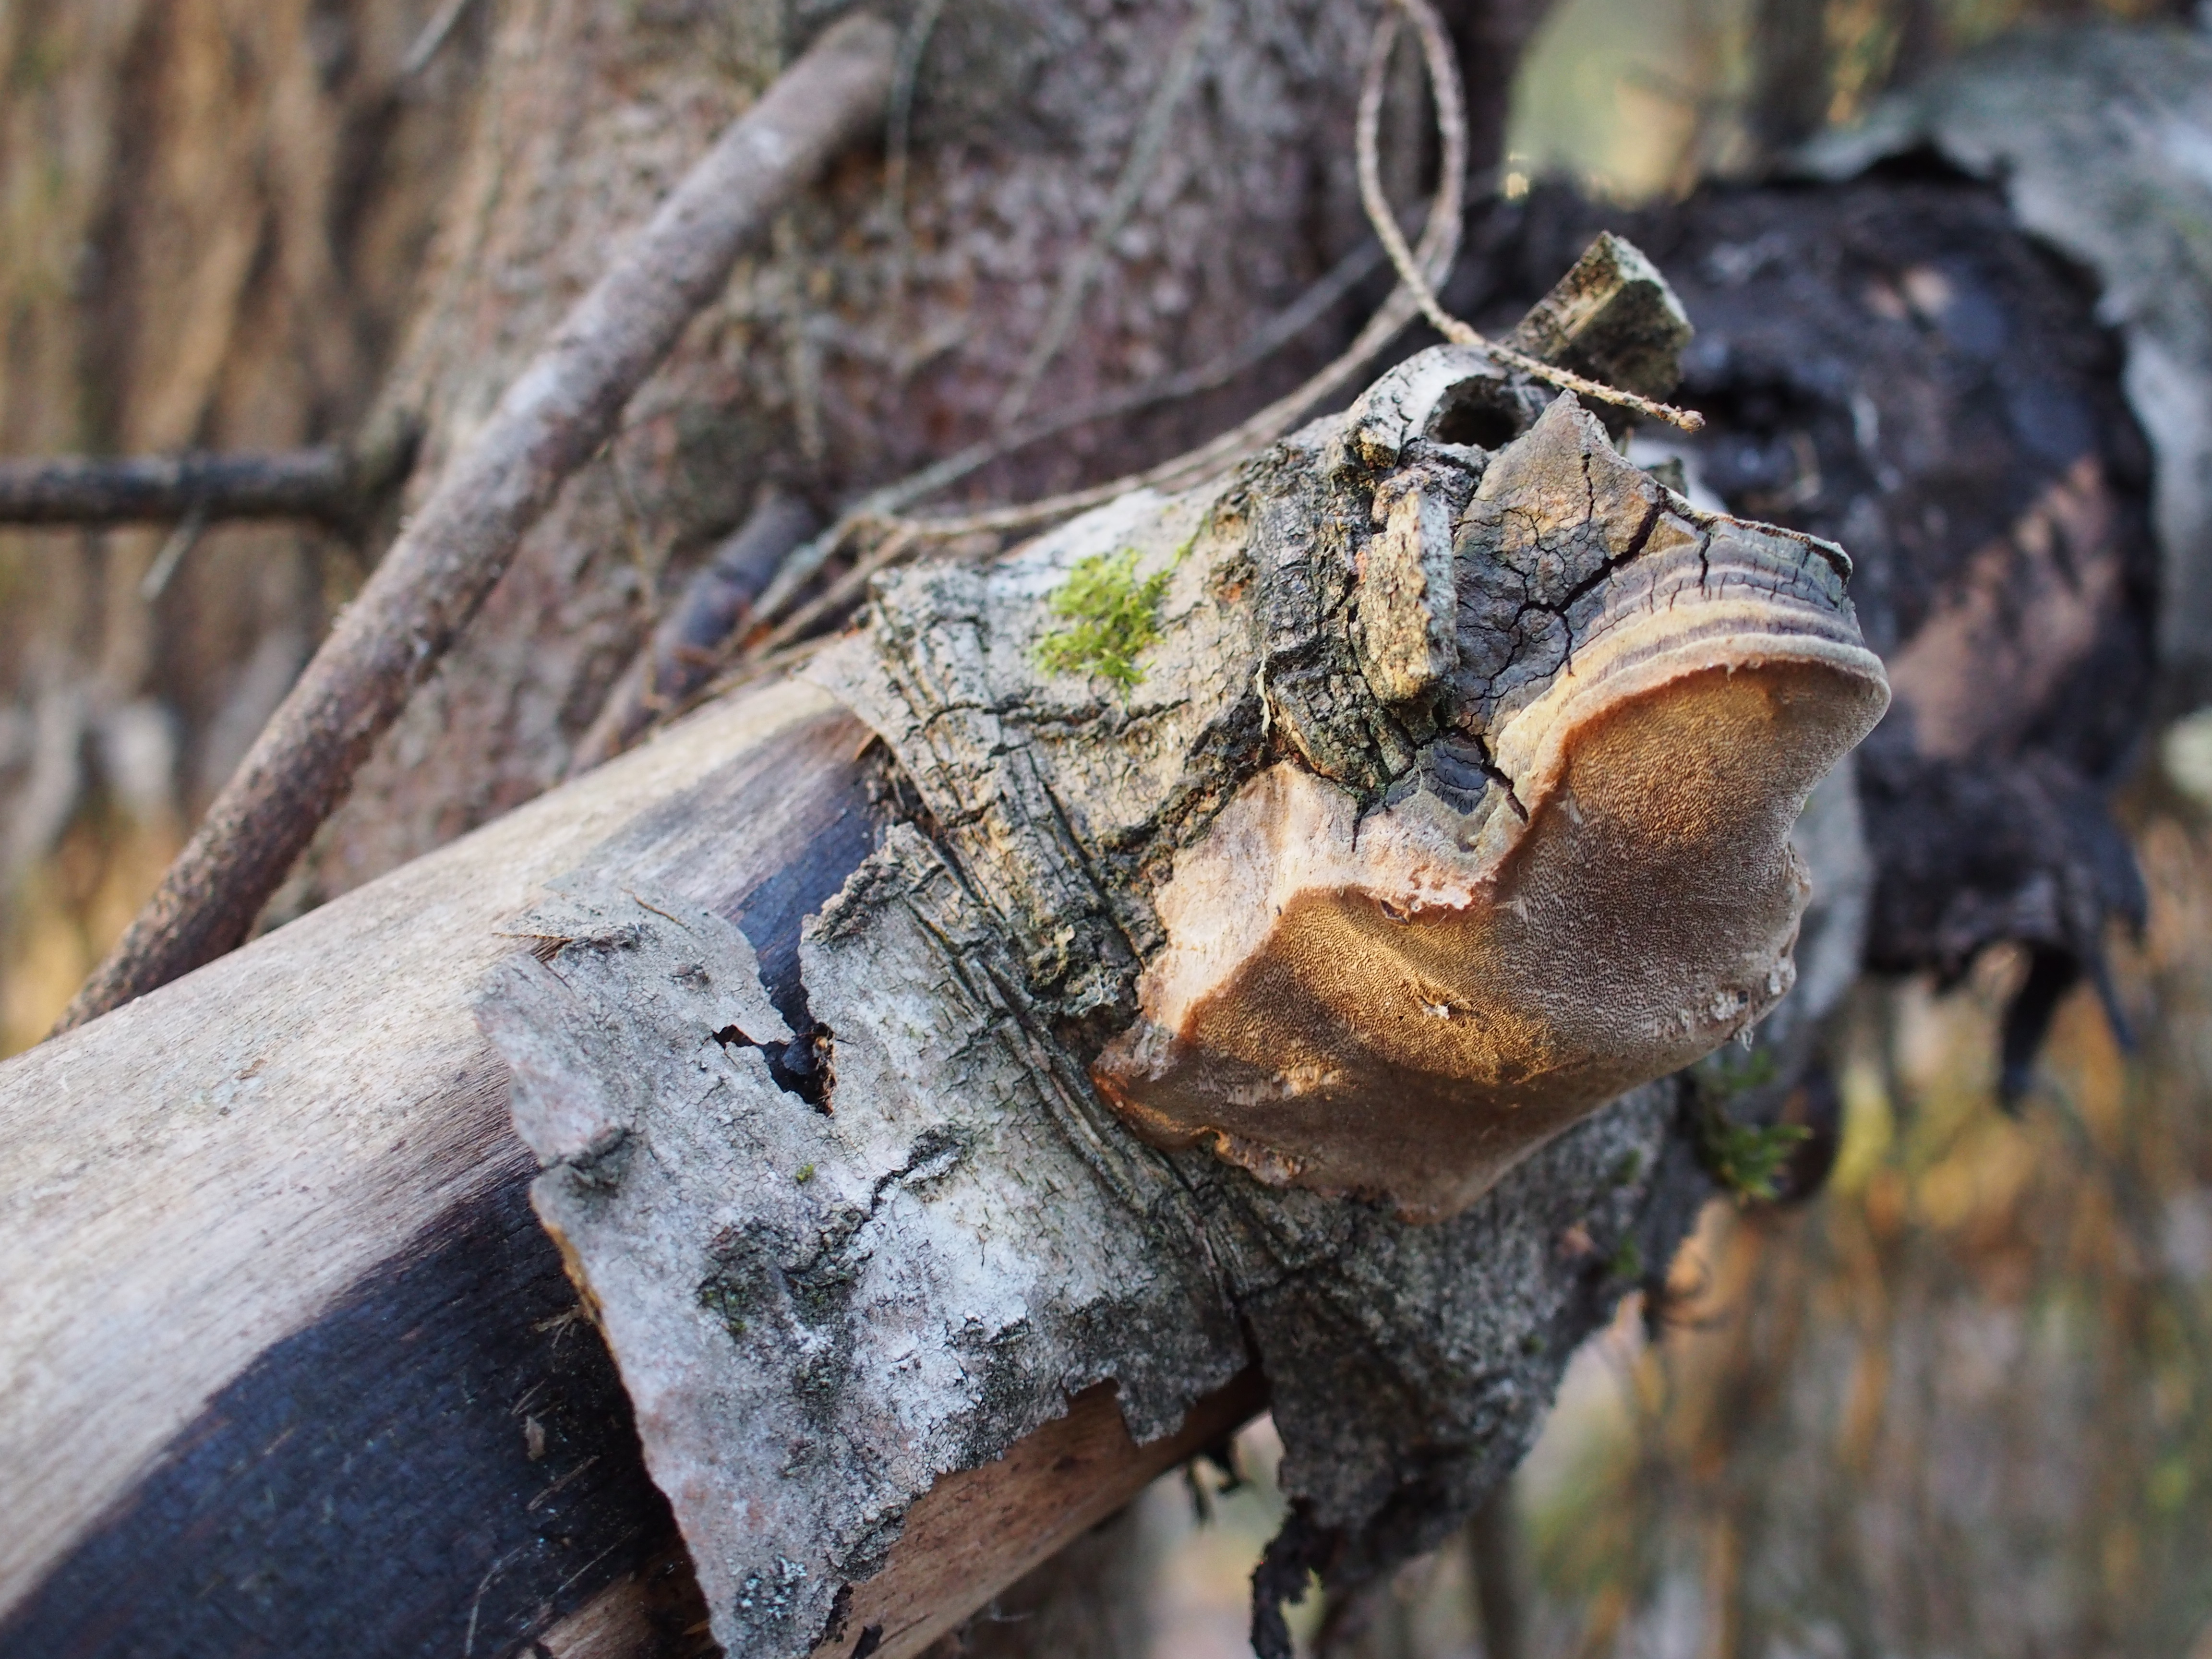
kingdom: Fungi
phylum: Basidiomycota
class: Agaricomycetes
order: Hymenochaetales
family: Hymenochaetaceae
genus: Phellinus
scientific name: Phellinus tremulae
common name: Aspen bracket
